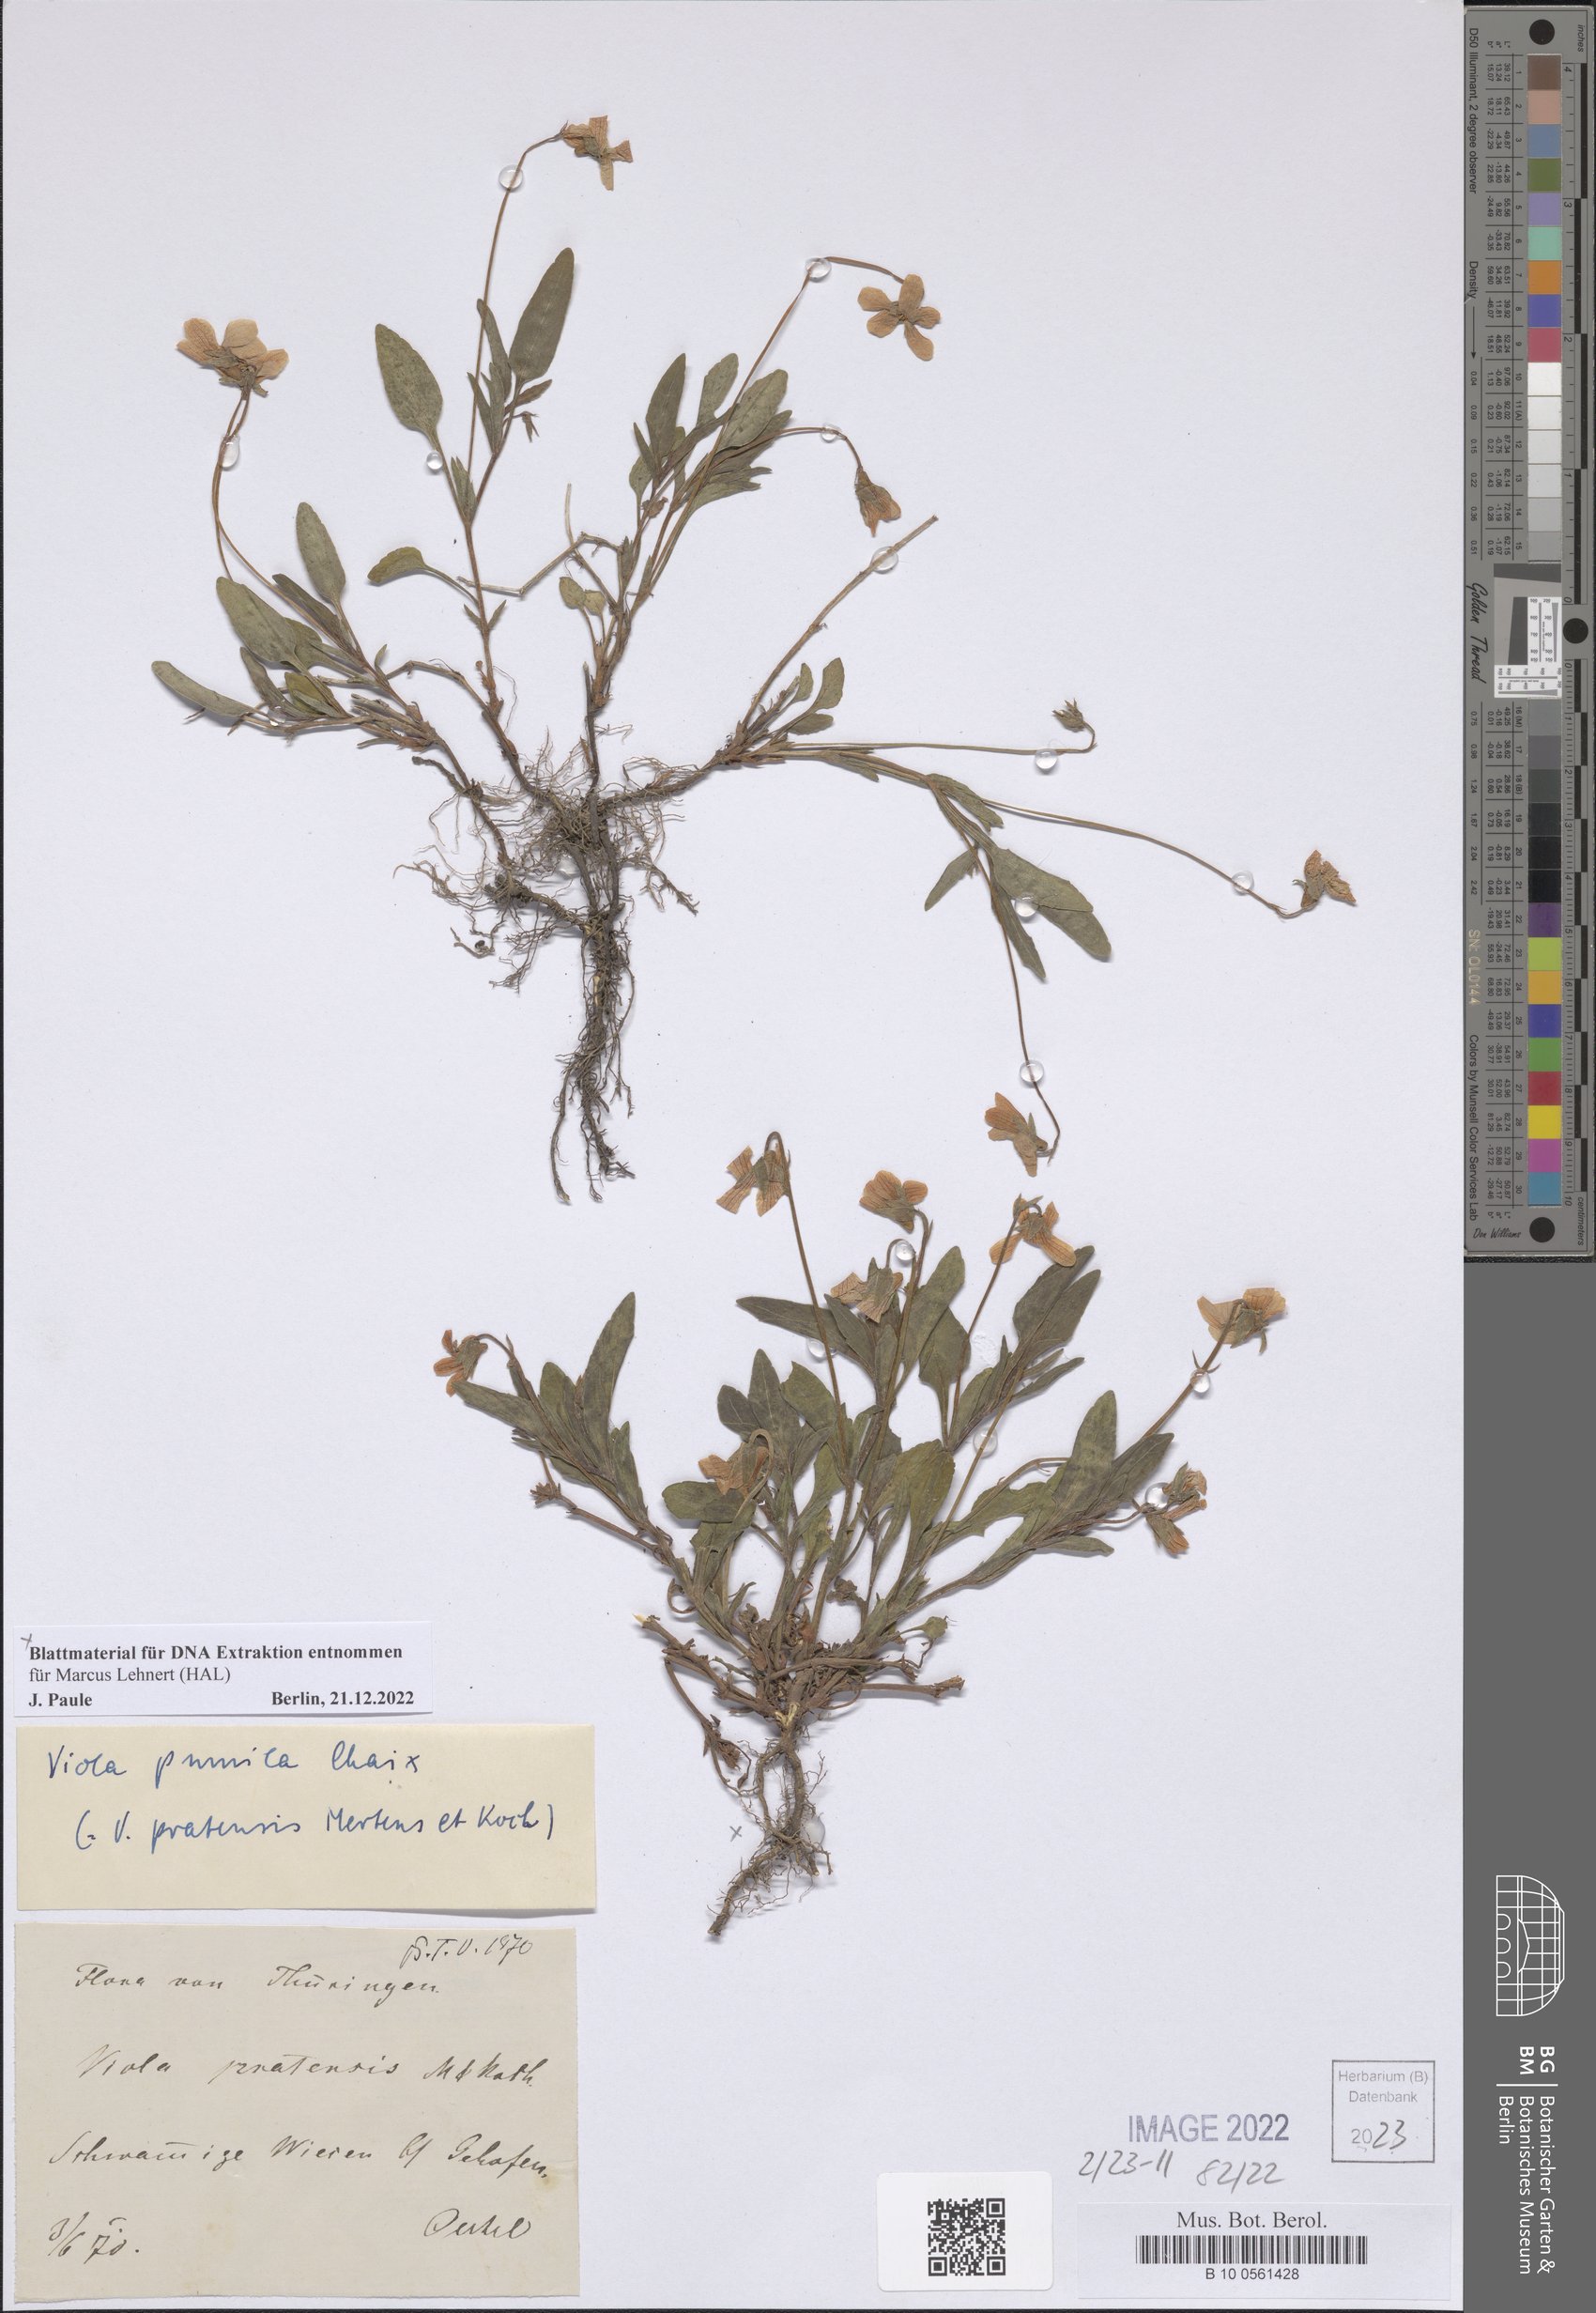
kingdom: Plantae
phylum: Tracheophyta
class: Magnoliopsida
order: Malpighiales
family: Violaceae
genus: Viola
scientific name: Viola pumila
